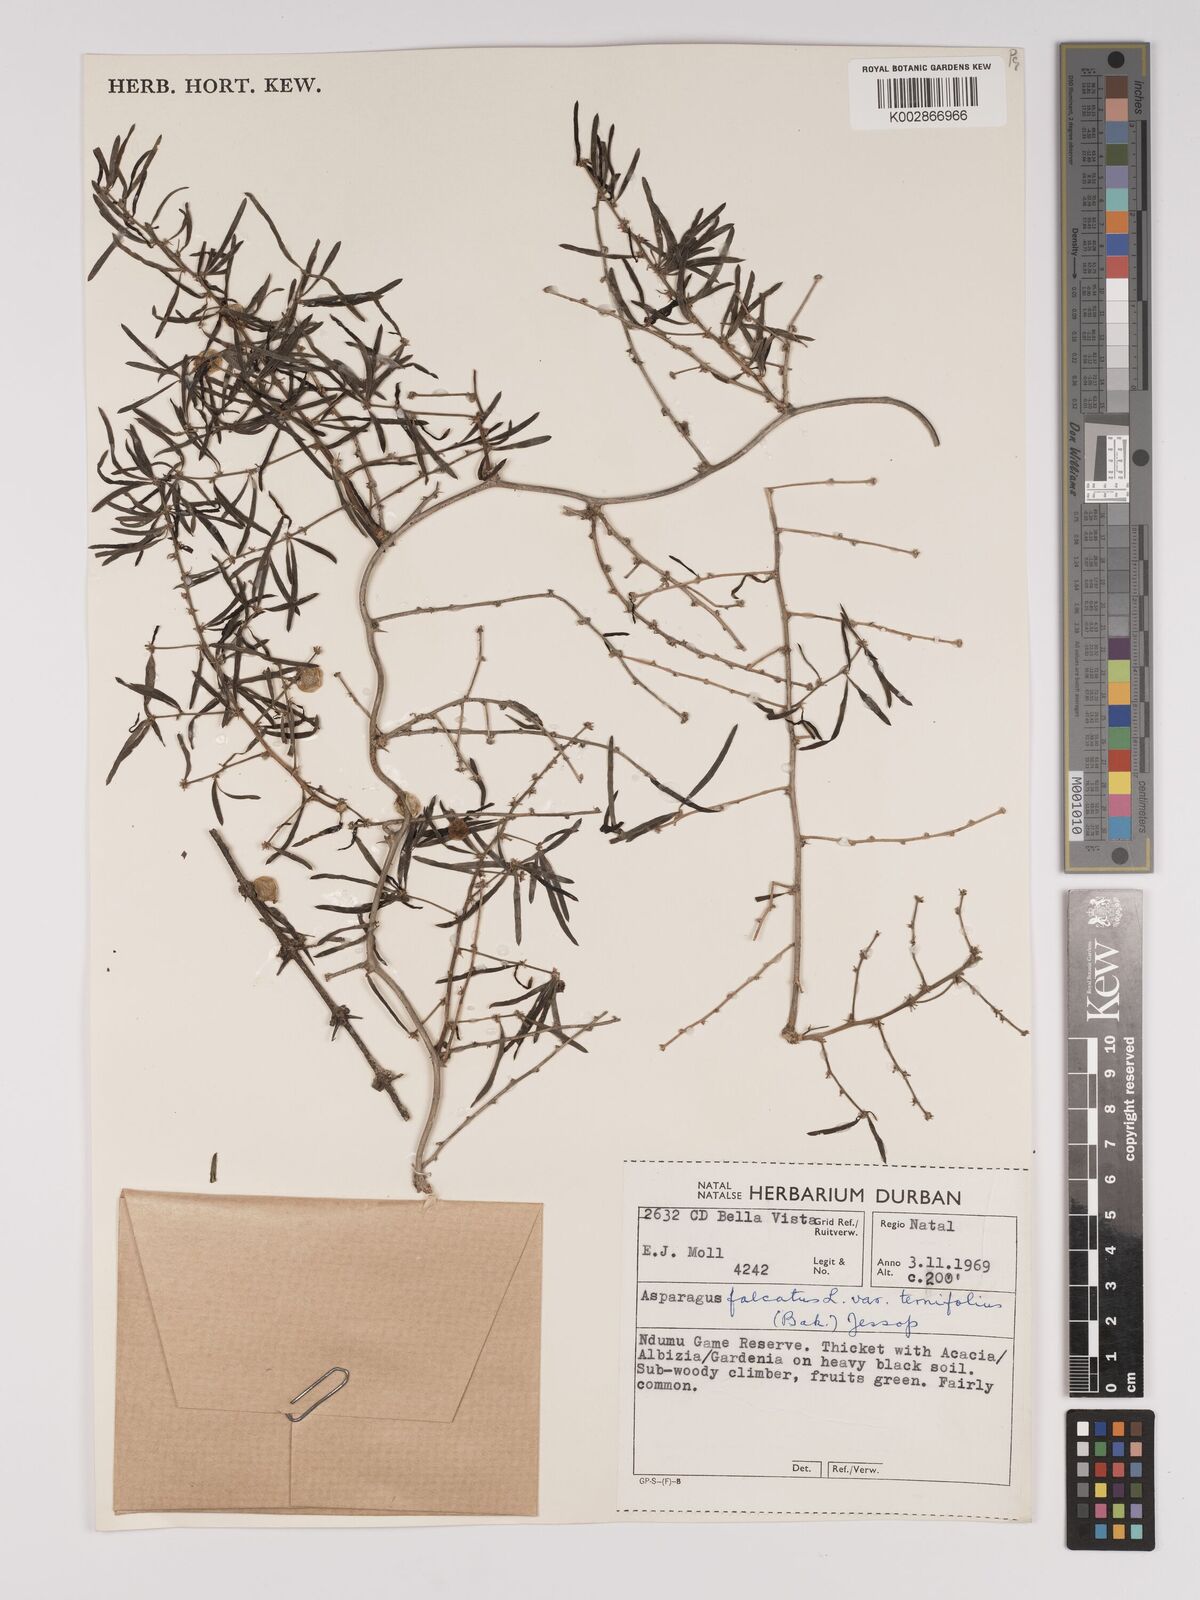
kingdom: Plantae
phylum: Tracheophyta
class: Liliopsida
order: Asparagales
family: Asparagaceae
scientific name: Asparagaceae
